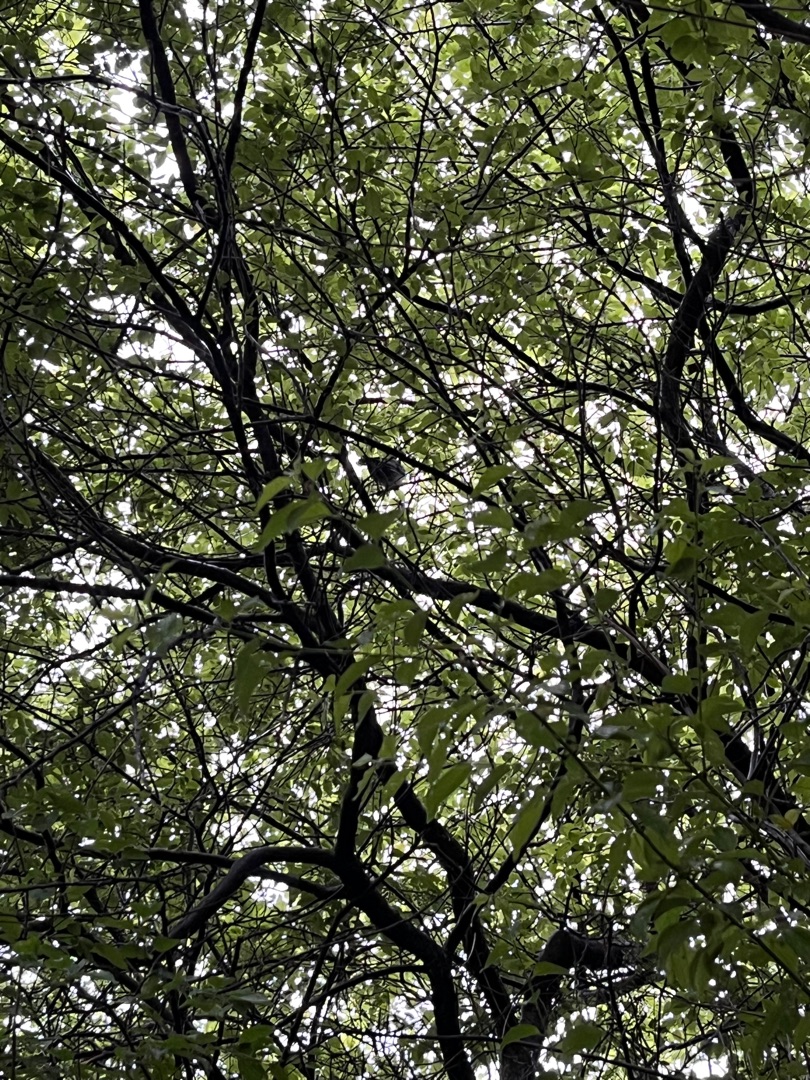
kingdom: Animalia
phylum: Chordata
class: Aves
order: Passeriformes
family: Corvidae
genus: Pica
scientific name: Pica pica
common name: Husskade
